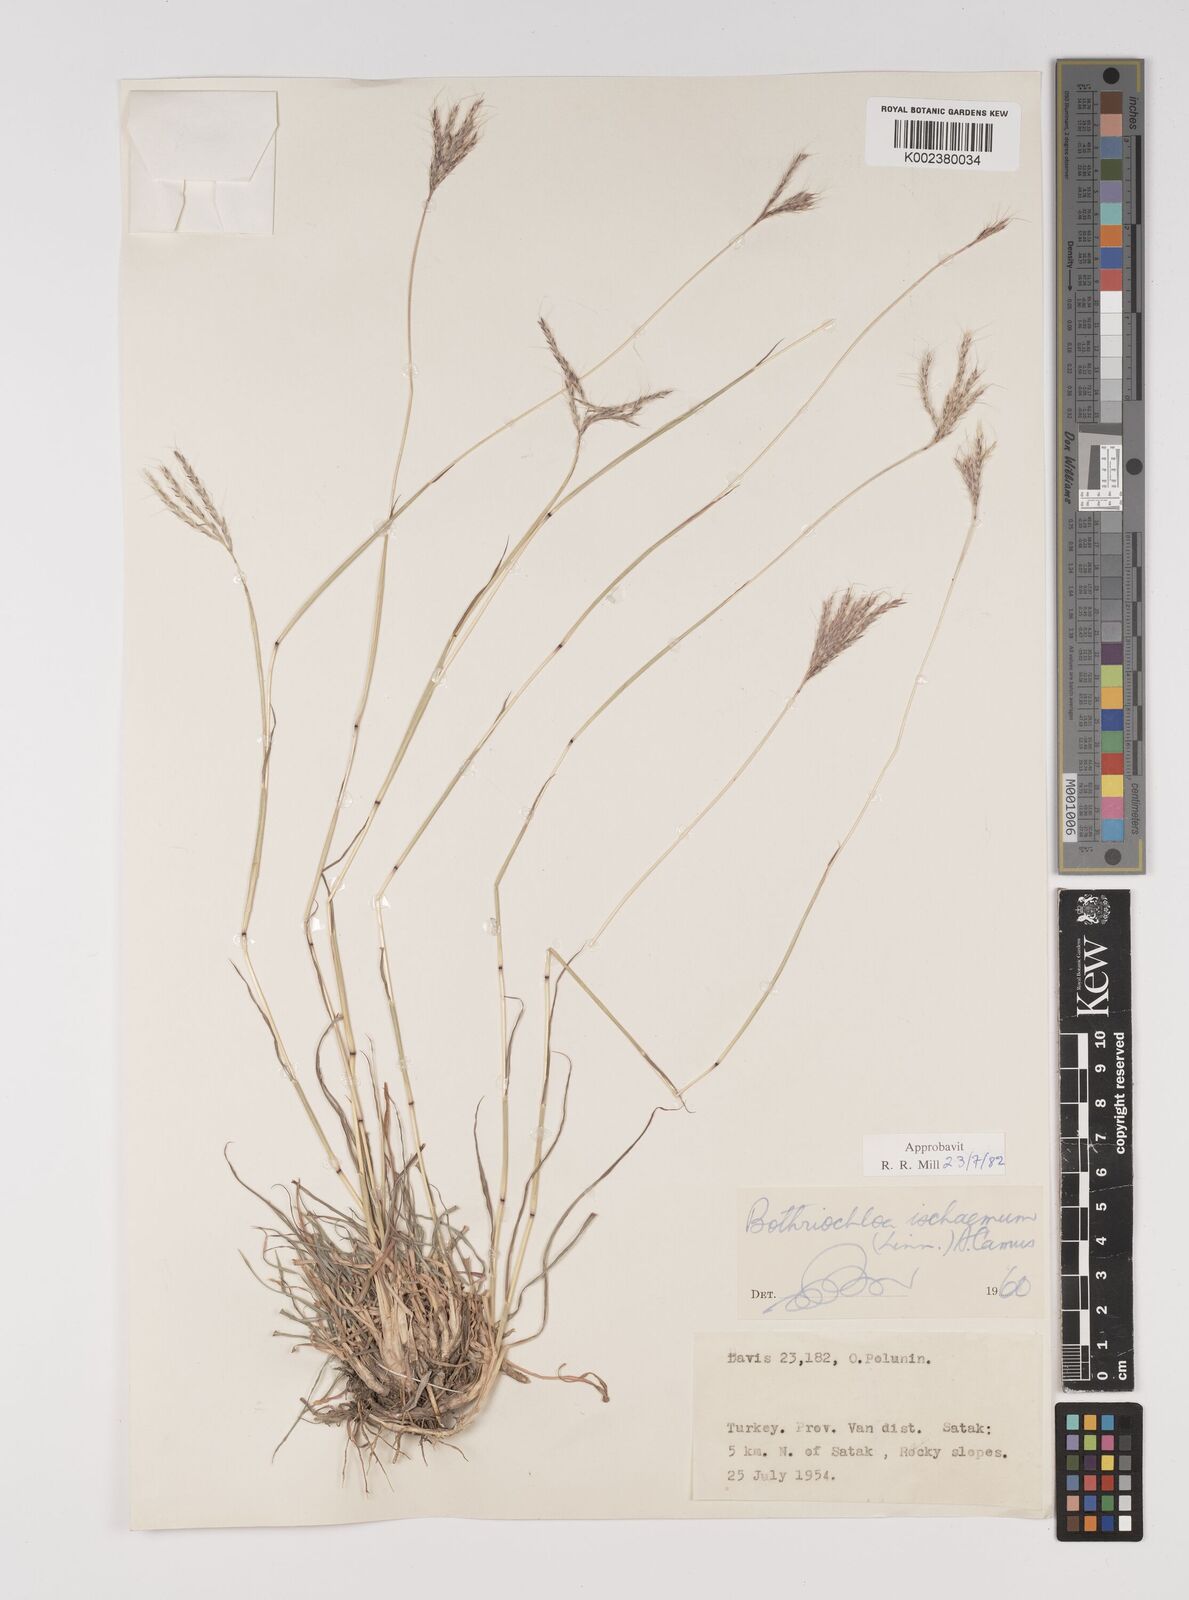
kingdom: Plantae
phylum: Tracheophyta
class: Liliopsida
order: Poales
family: Poaceae
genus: Bothriochloa
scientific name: Bothriochloa ischaemum
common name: Yellow bluestem
